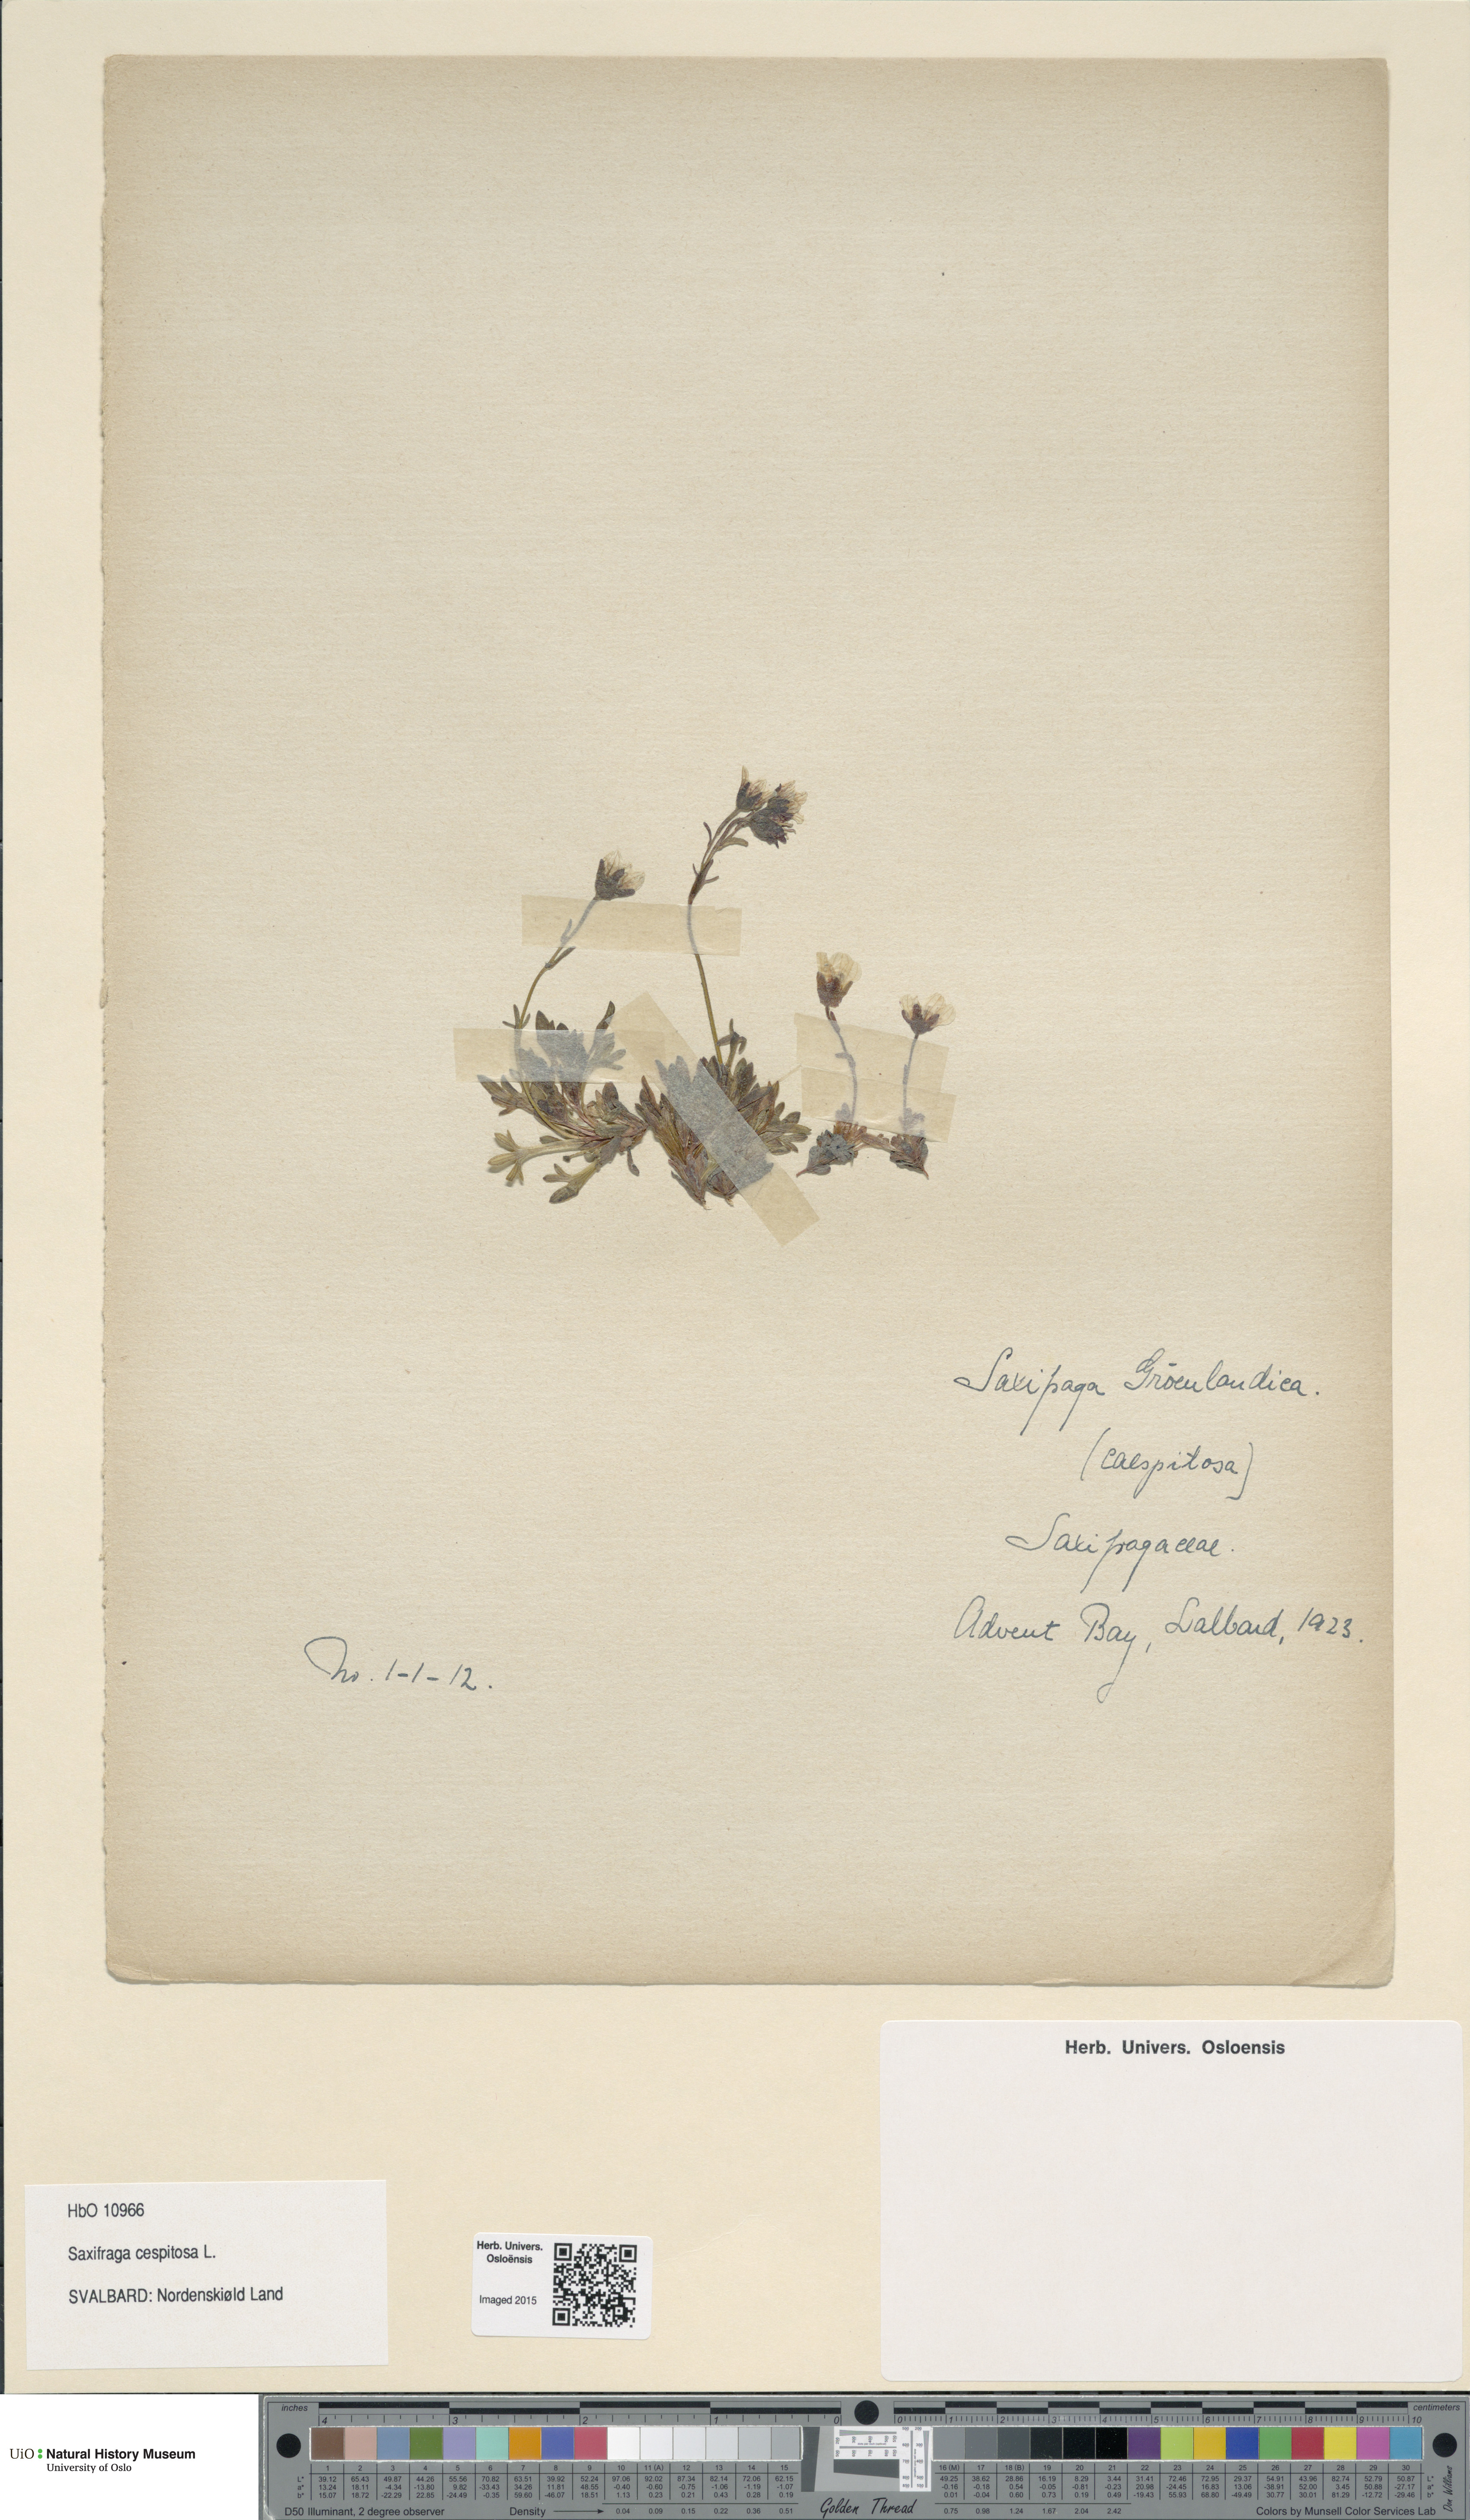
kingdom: Plantae
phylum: Tracheophyta
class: Magnoliopsida
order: Saxifragales
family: Saxifragaceae
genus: Saxifraga
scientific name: Saxifraga cespitosa
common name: Tufted saxifrage
